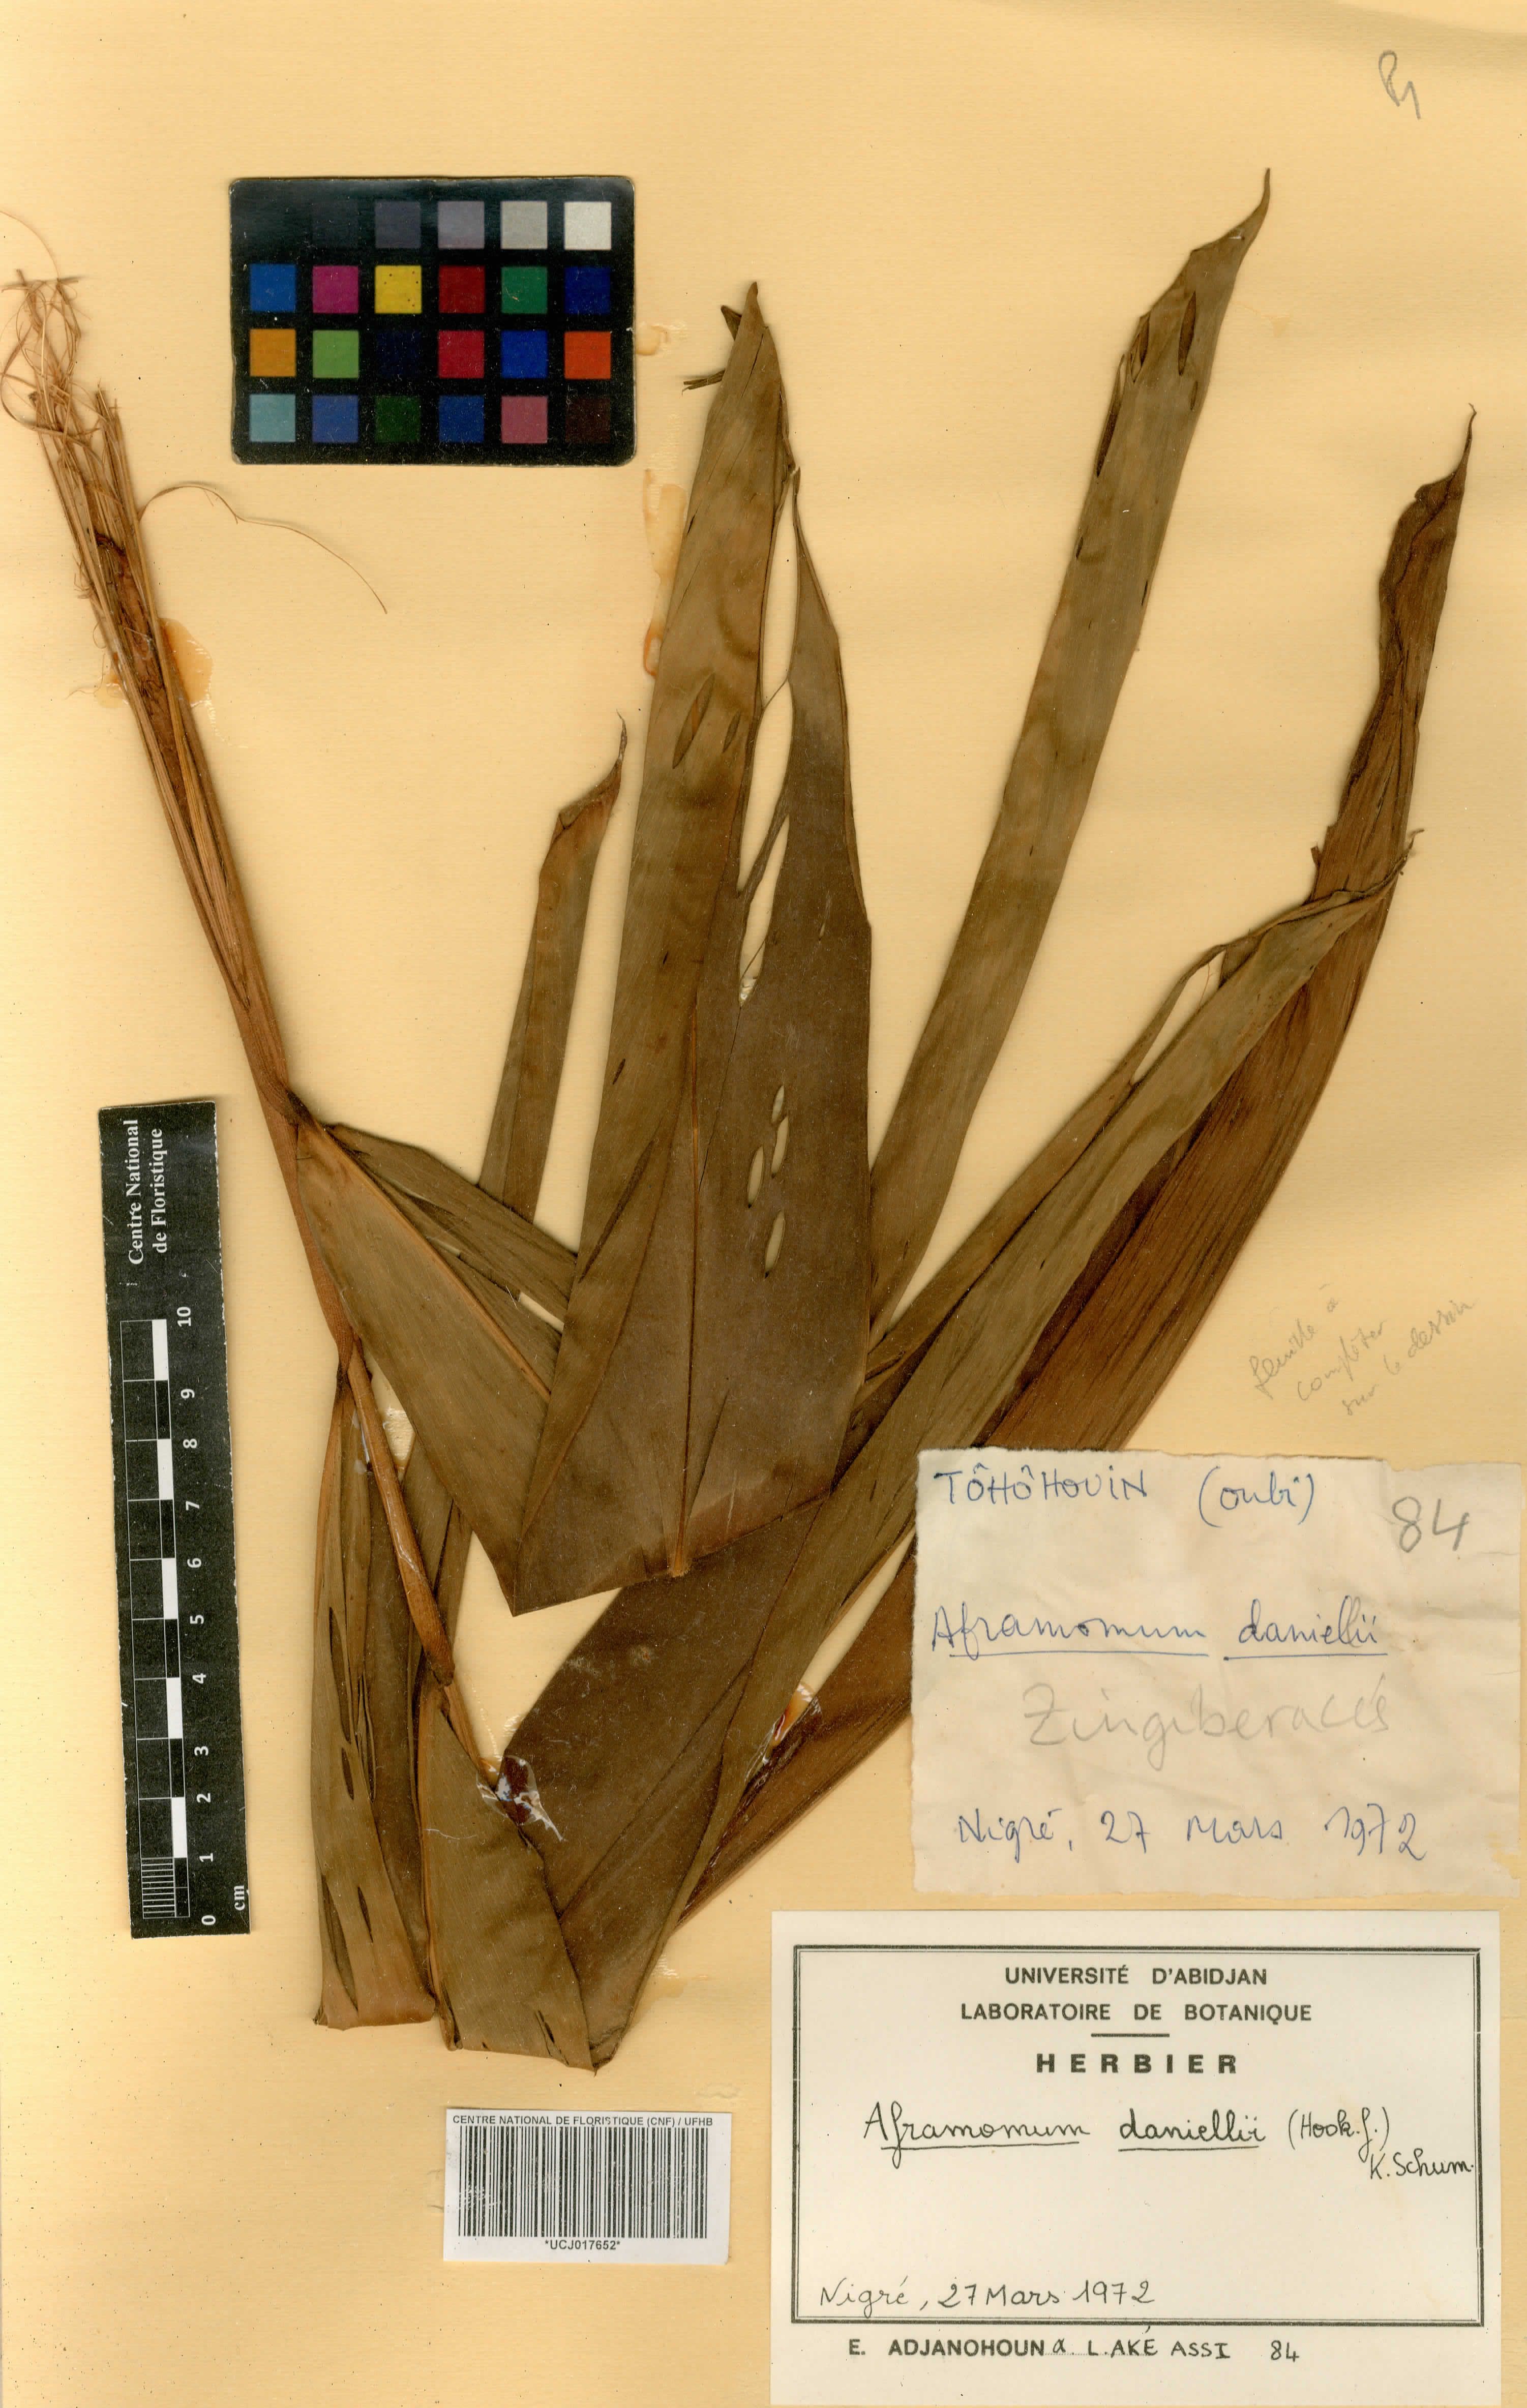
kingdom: Plantae
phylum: Tracheophyta
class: Liliopsida
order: Zingiberales
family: Zingiberaceae
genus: Aframomum
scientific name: Aframomum daniellii
